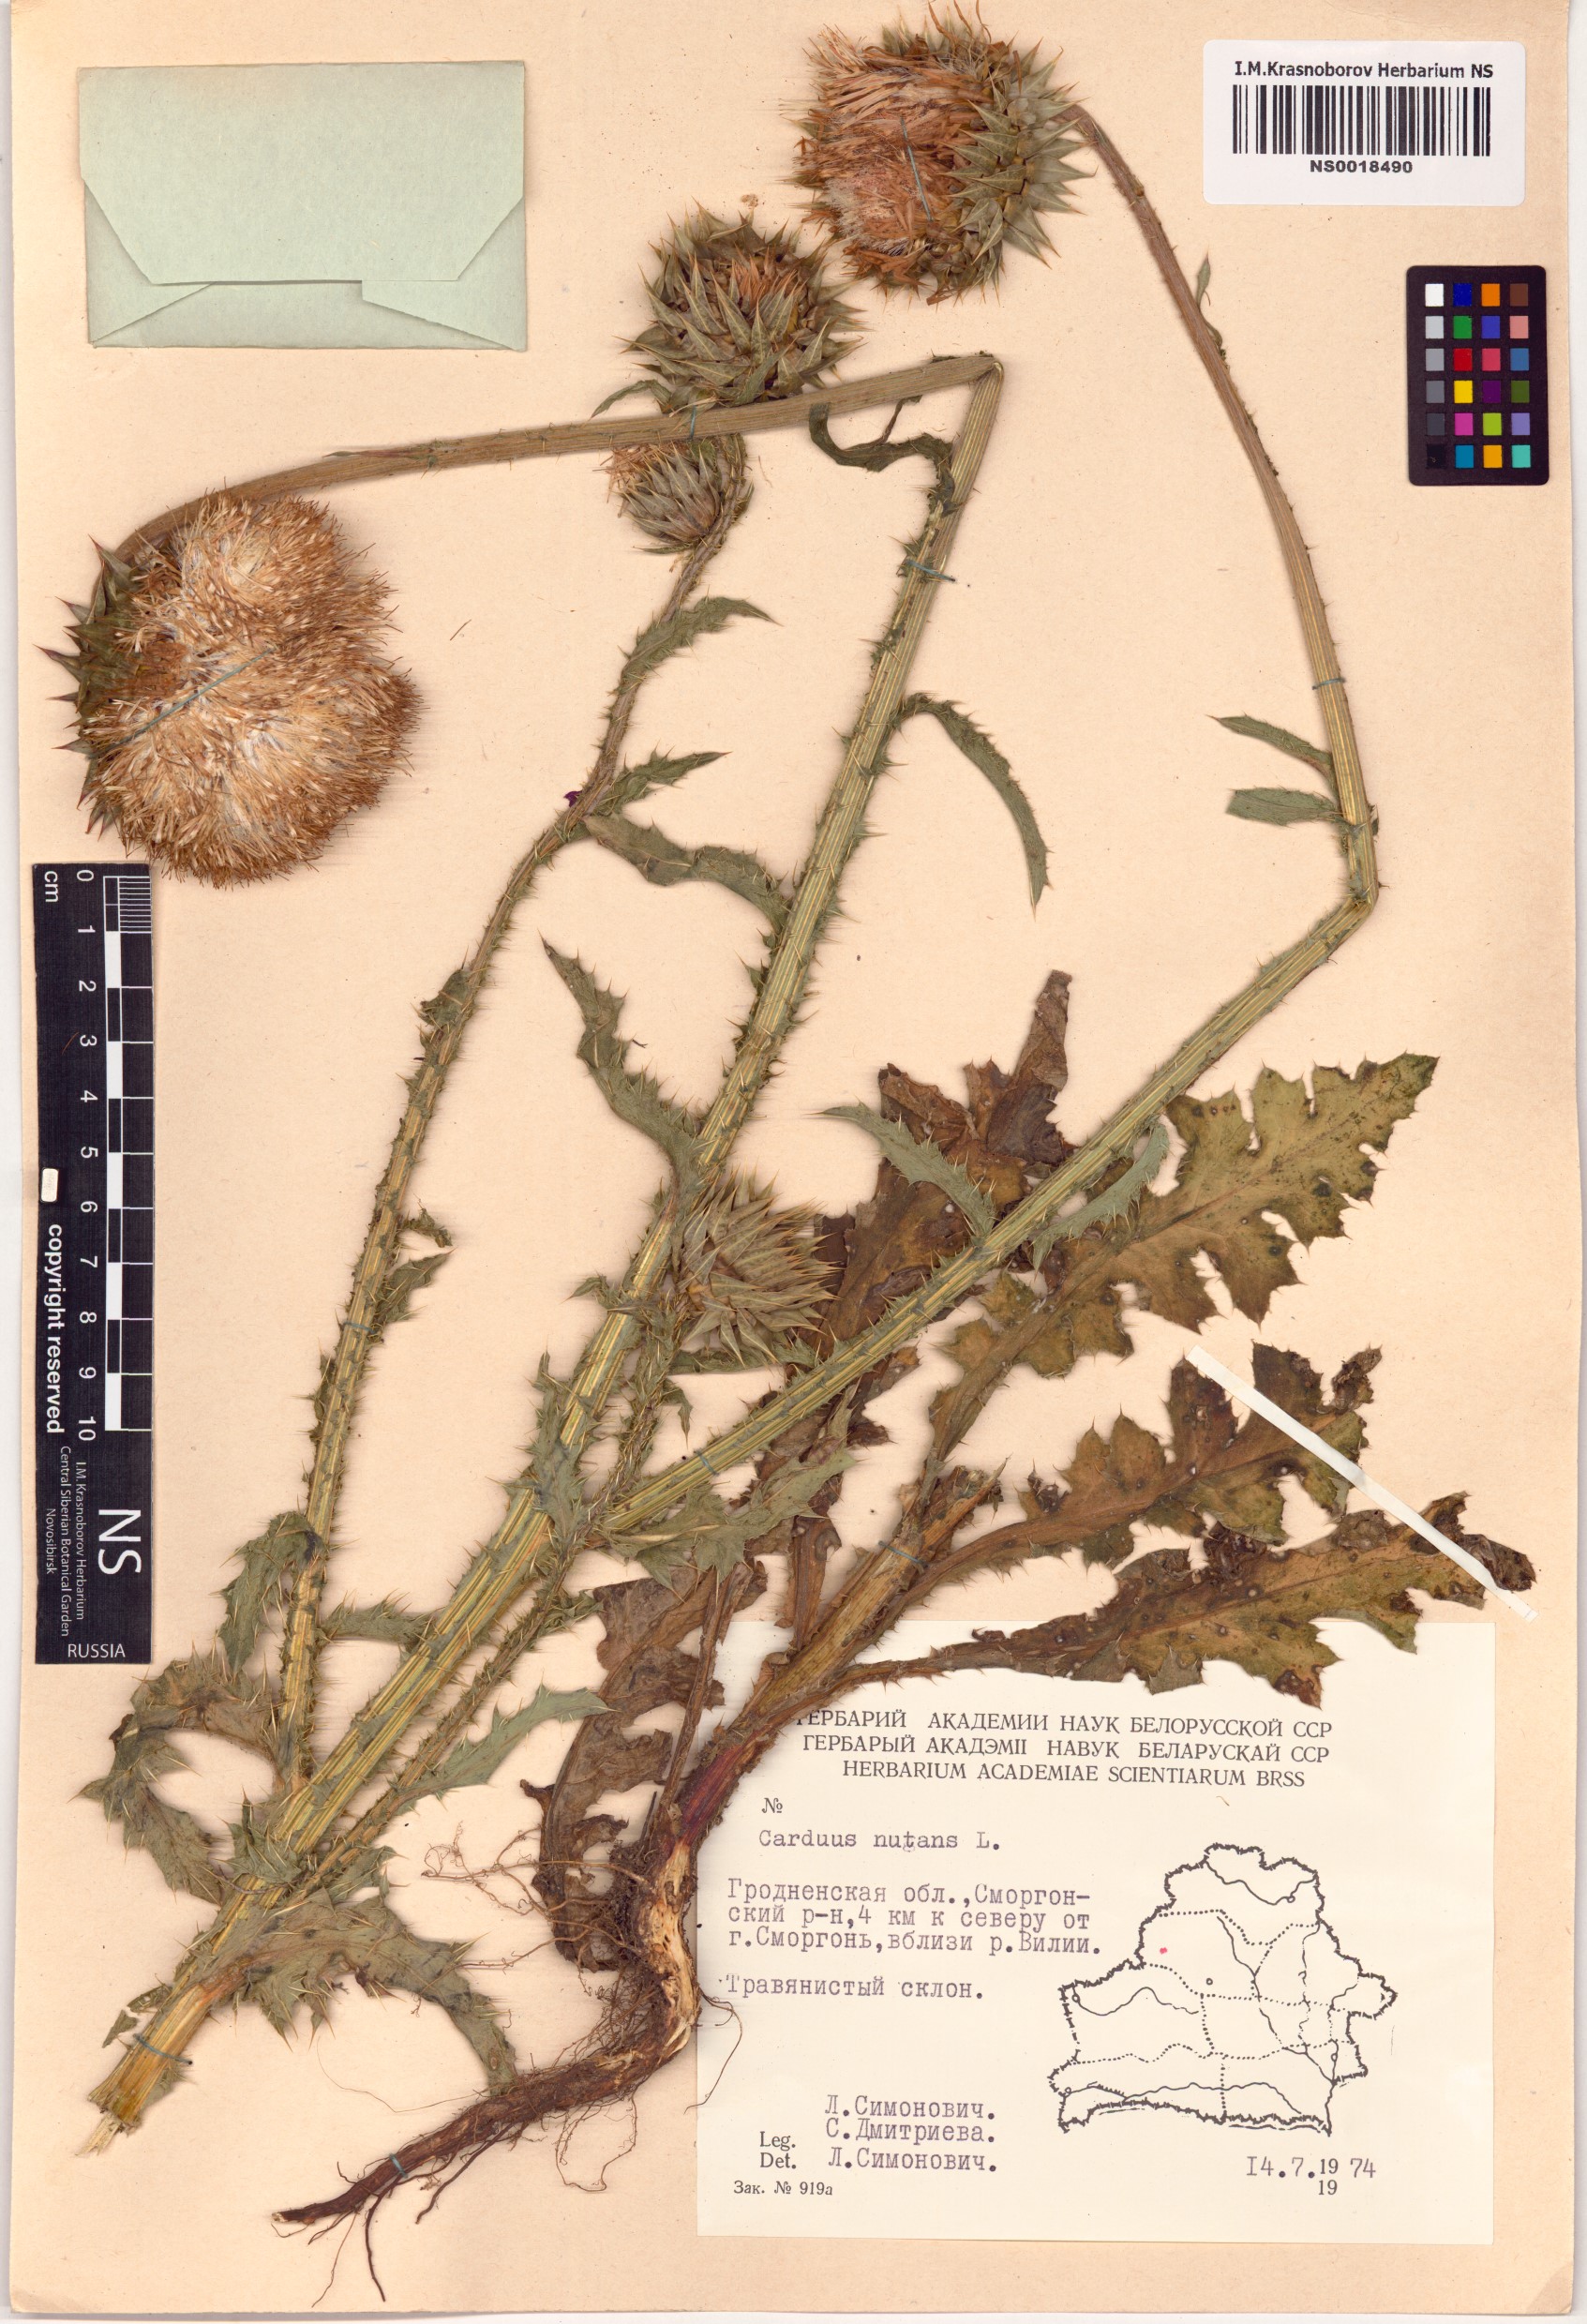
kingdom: Plantae
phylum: Tracheophyta
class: Magnoliopsida
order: Asterales
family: Asteraceae
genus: Carduus
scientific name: Carduus nutans
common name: Musk thistle
